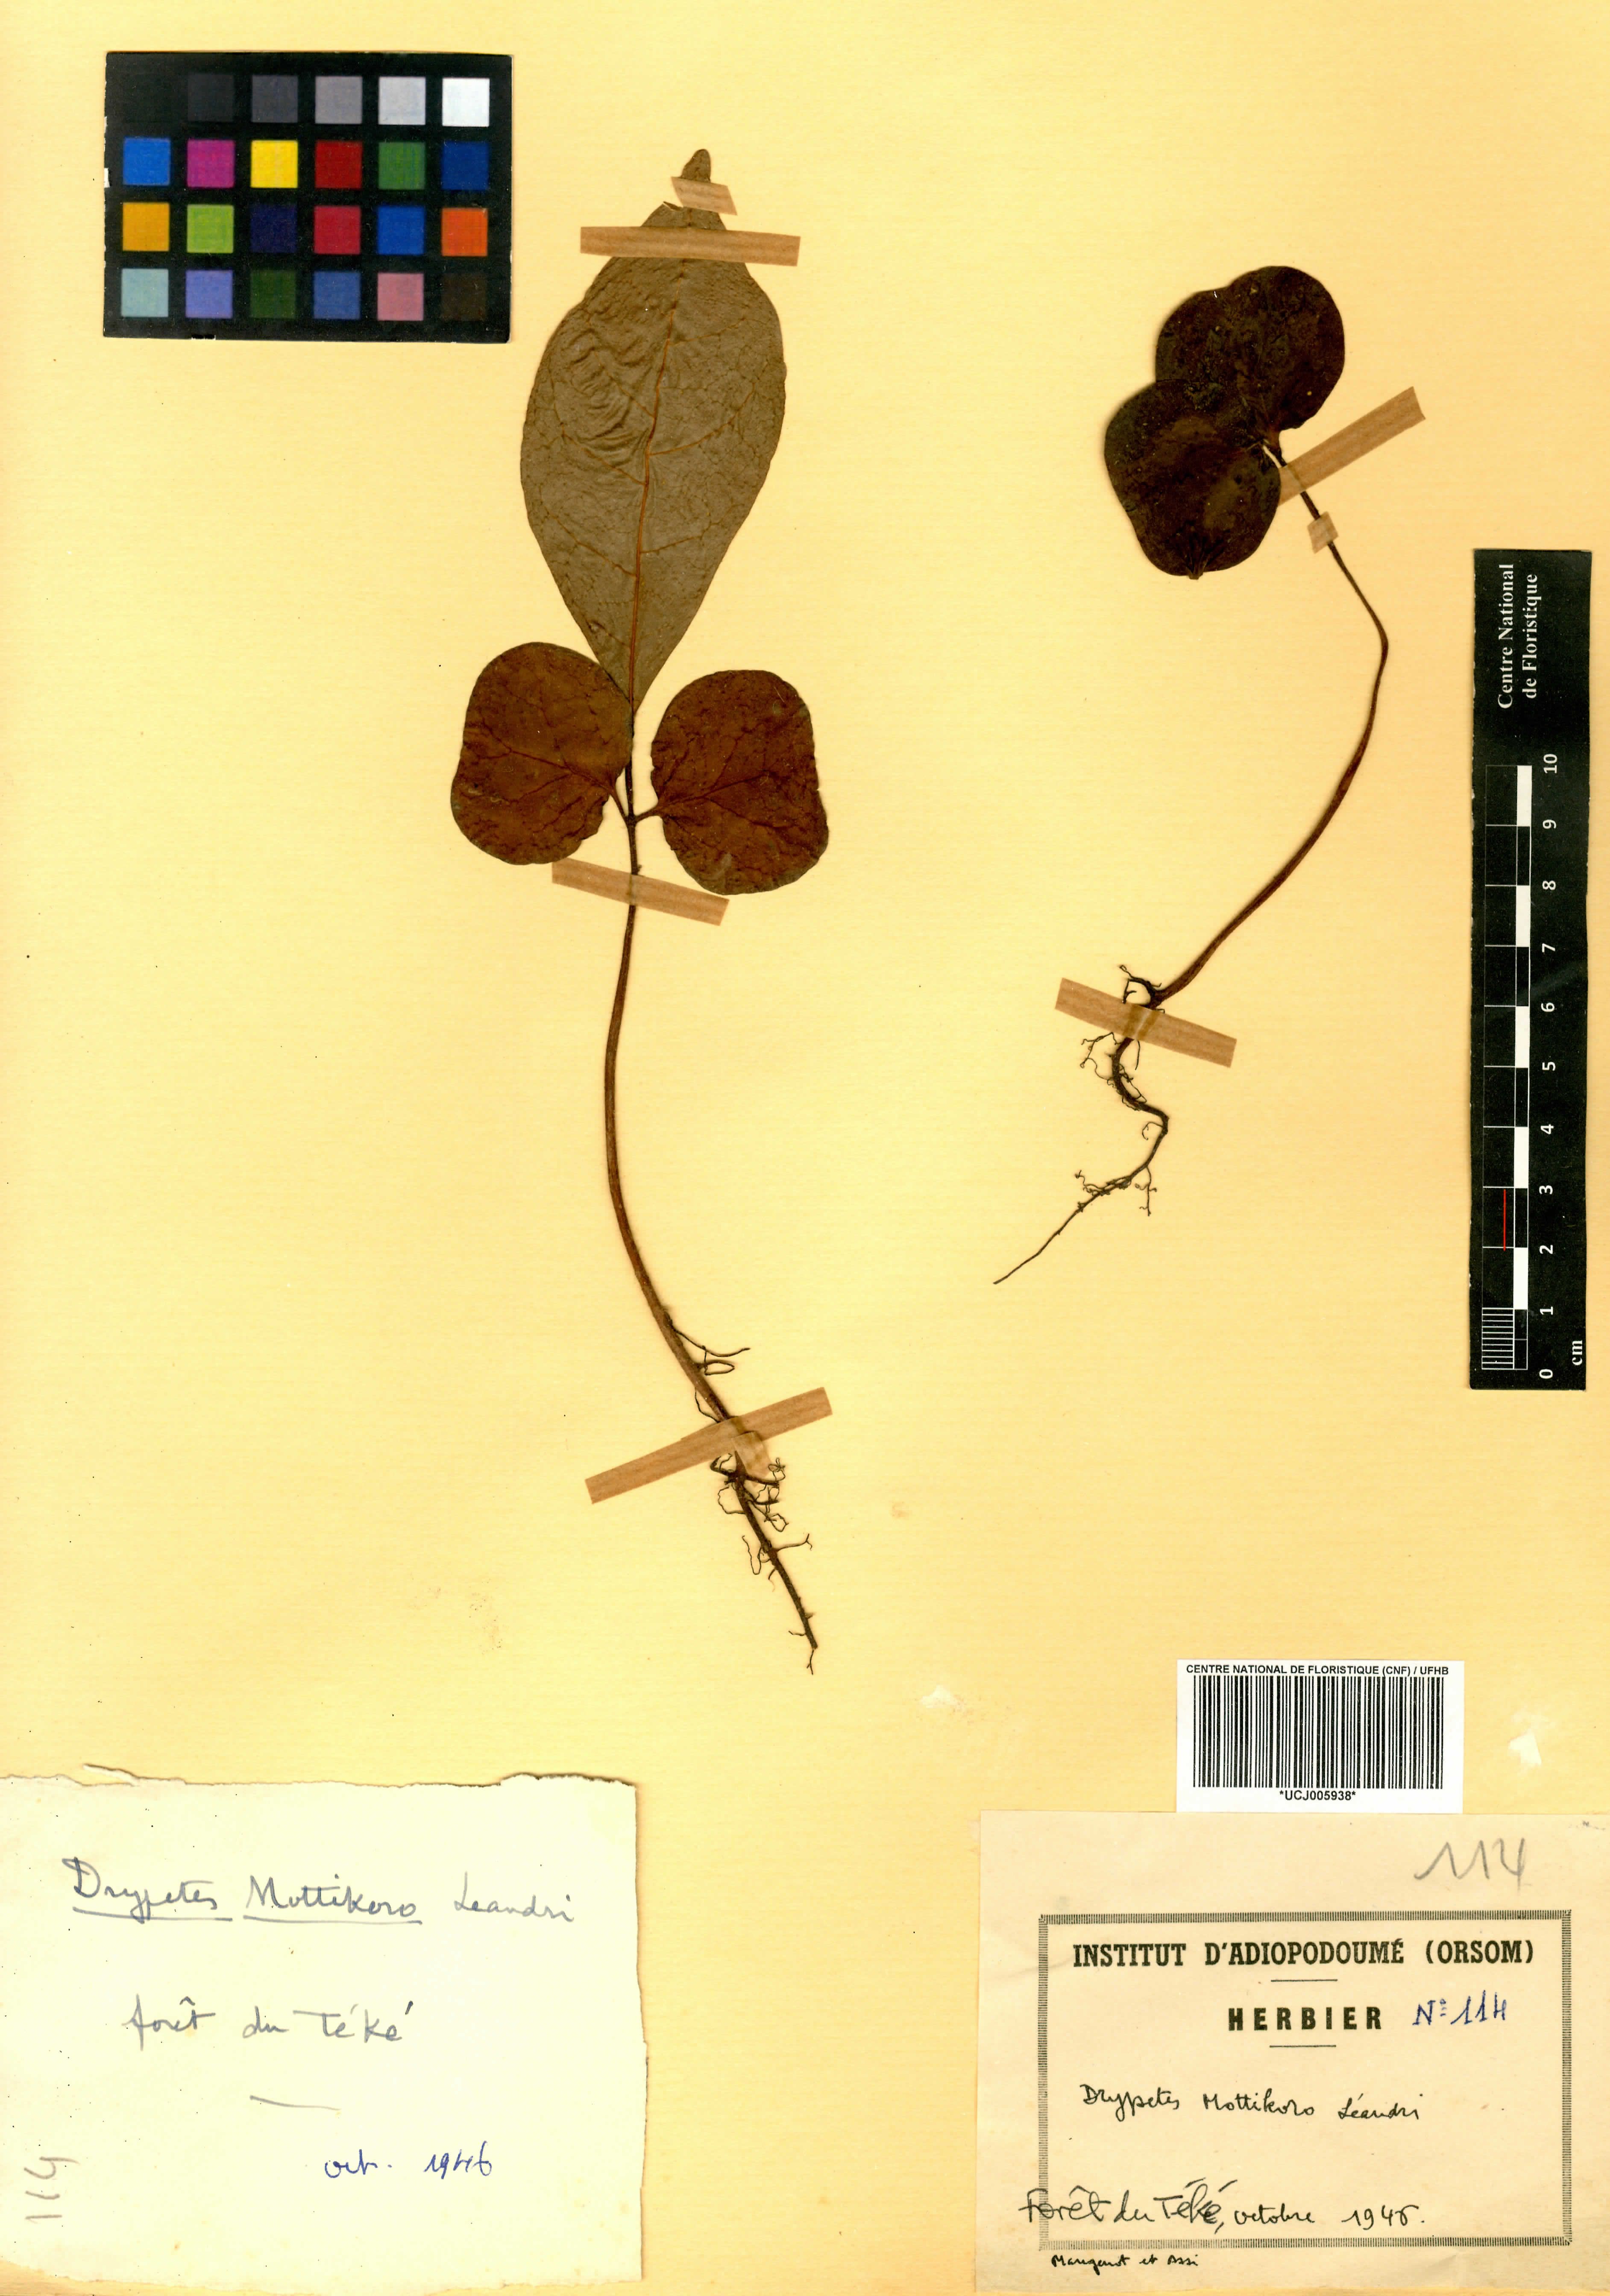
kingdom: Plantae
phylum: Tracheophyta
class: Magnoliopsida
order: Malpighiales
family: Putranjivaceae
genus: Drypetes
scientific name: Drypetes aylmeri
